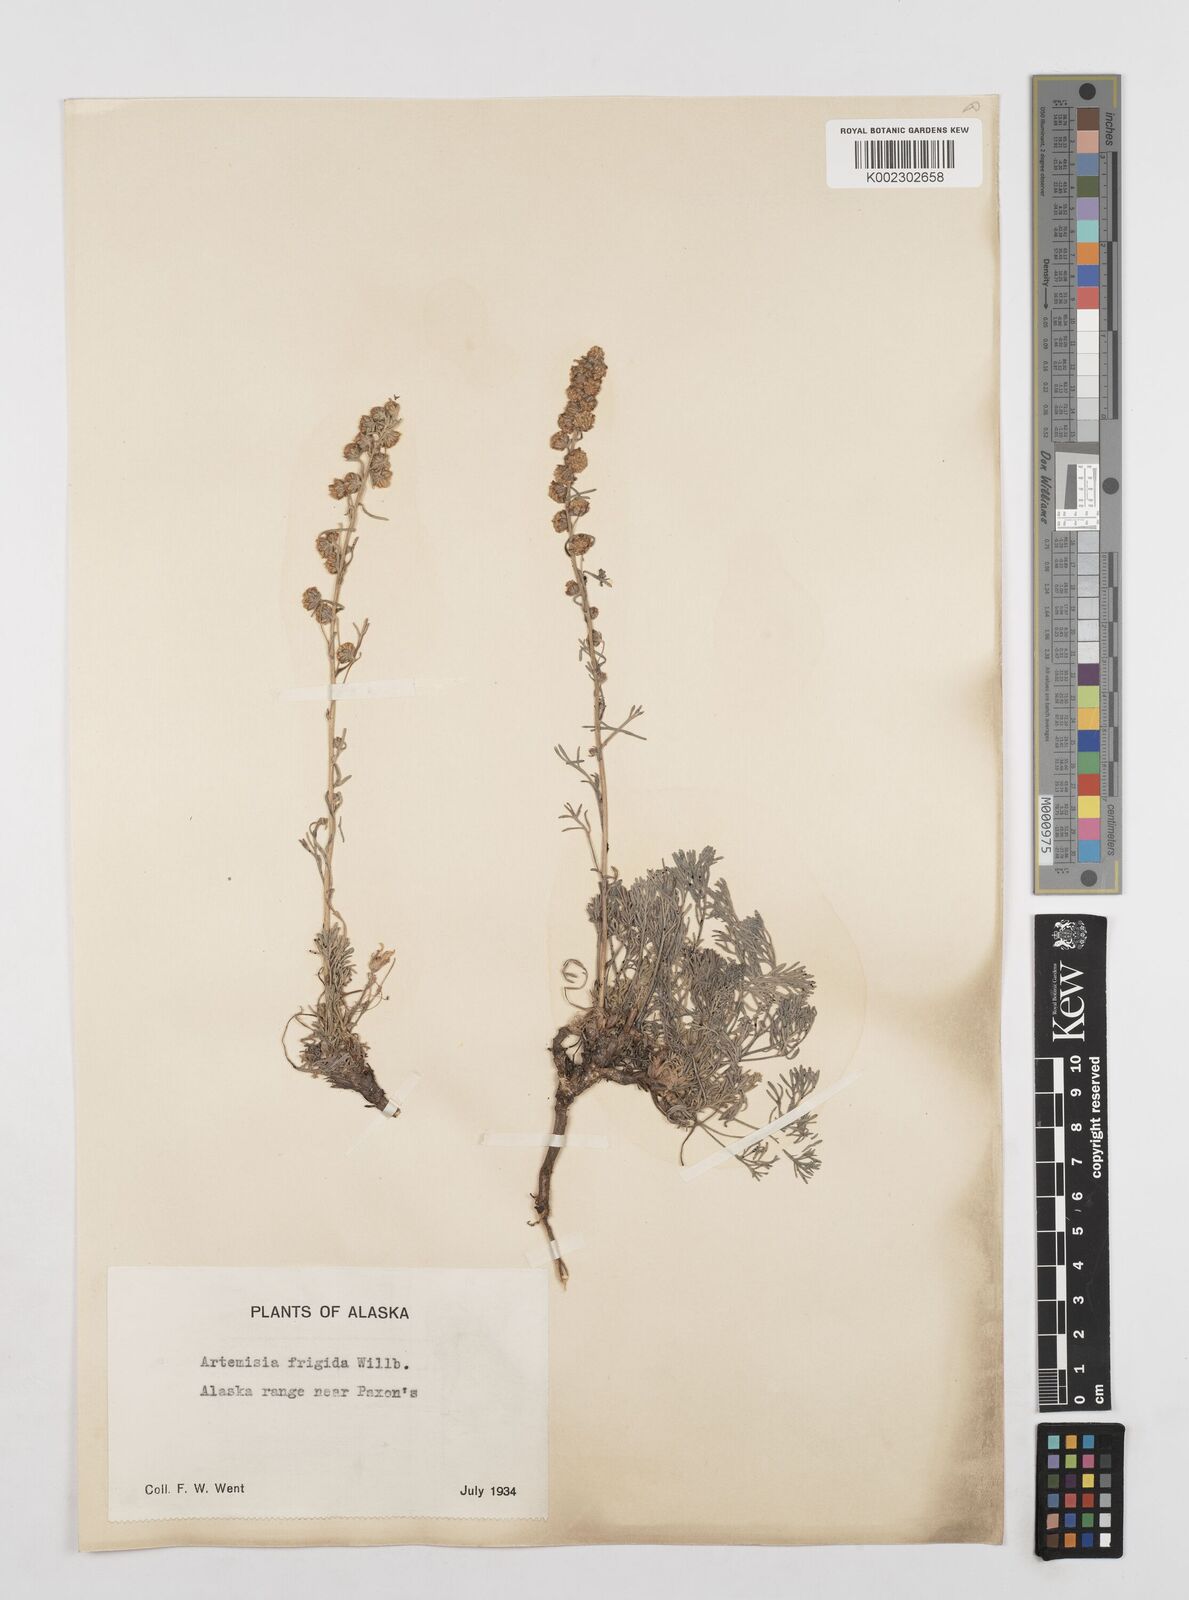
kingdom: Plantae
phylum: Tracheophyta
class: Magnoliopsida
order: Asterales
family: Asteraceae
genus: Artemisia
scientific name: Artemisia frigida
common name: Prairie sagewort
